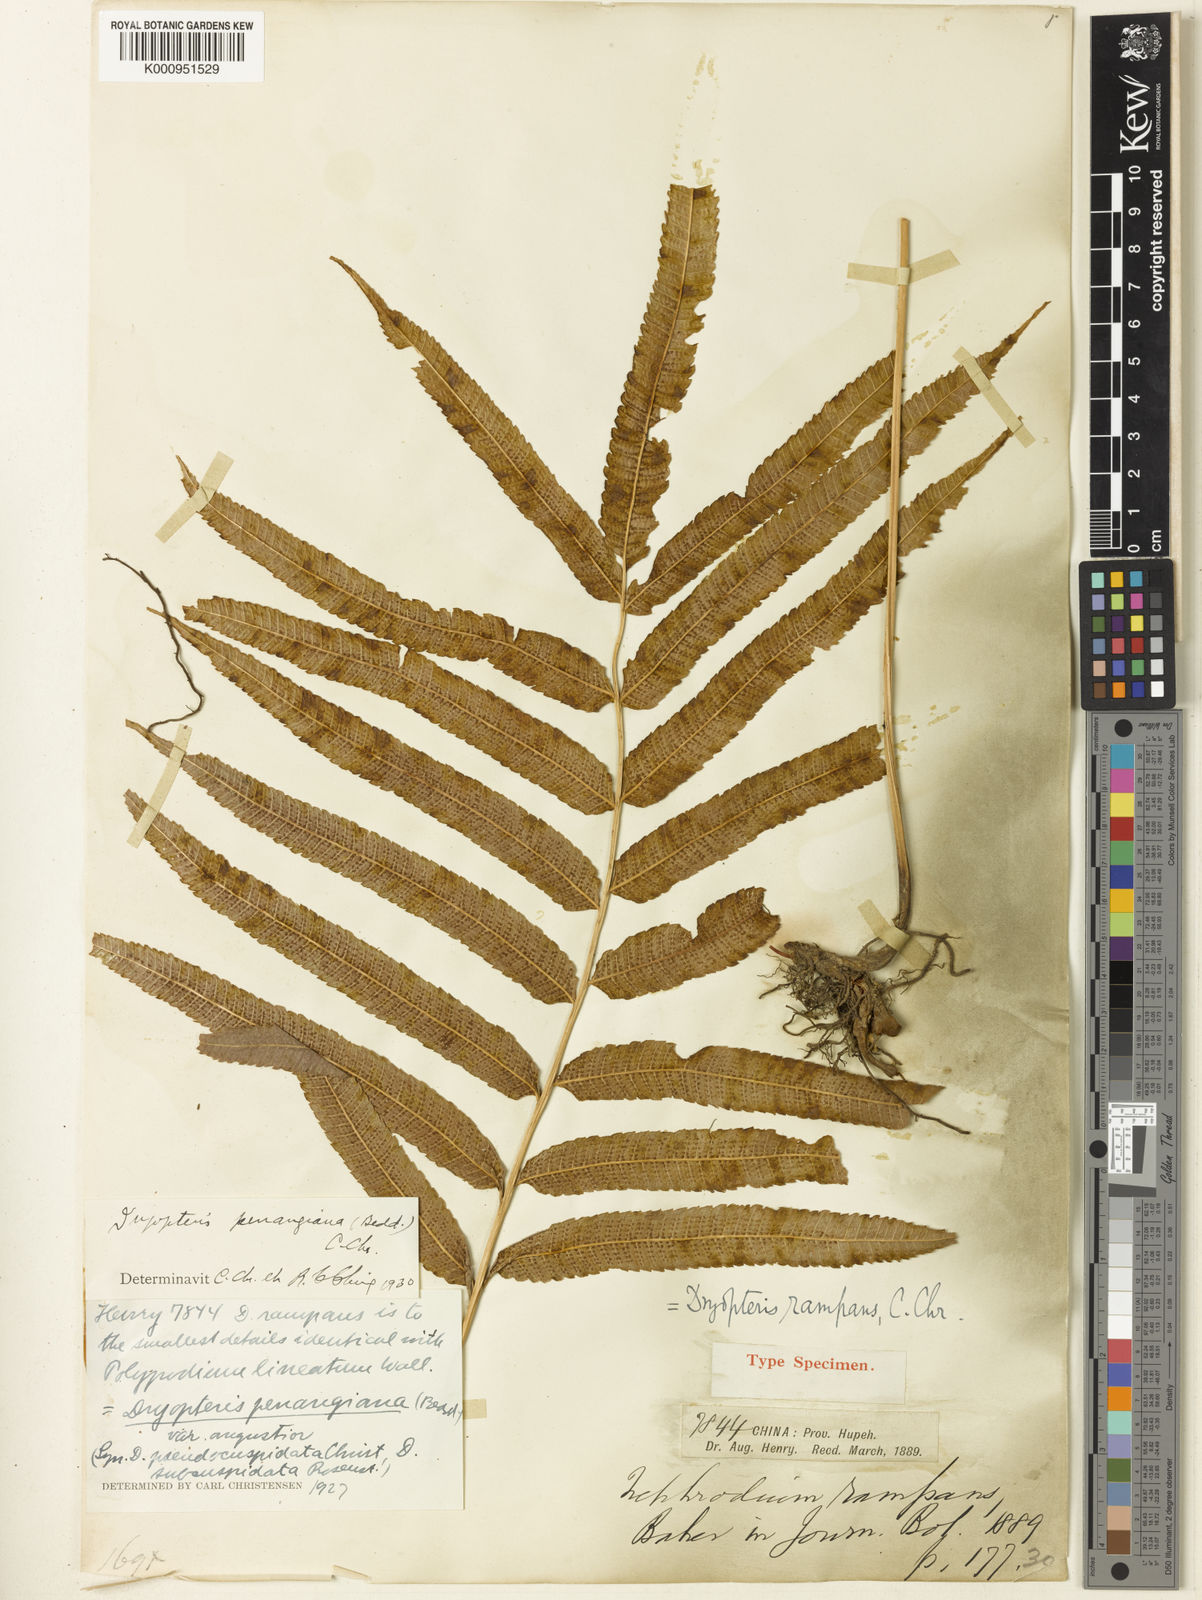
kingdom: Plantae
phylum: Tracheophyta
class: Polypodiopsida
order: Polypodiales
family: Thelypteridaceae
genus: Menisciopsis
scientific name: Menisciopsis penangiana
